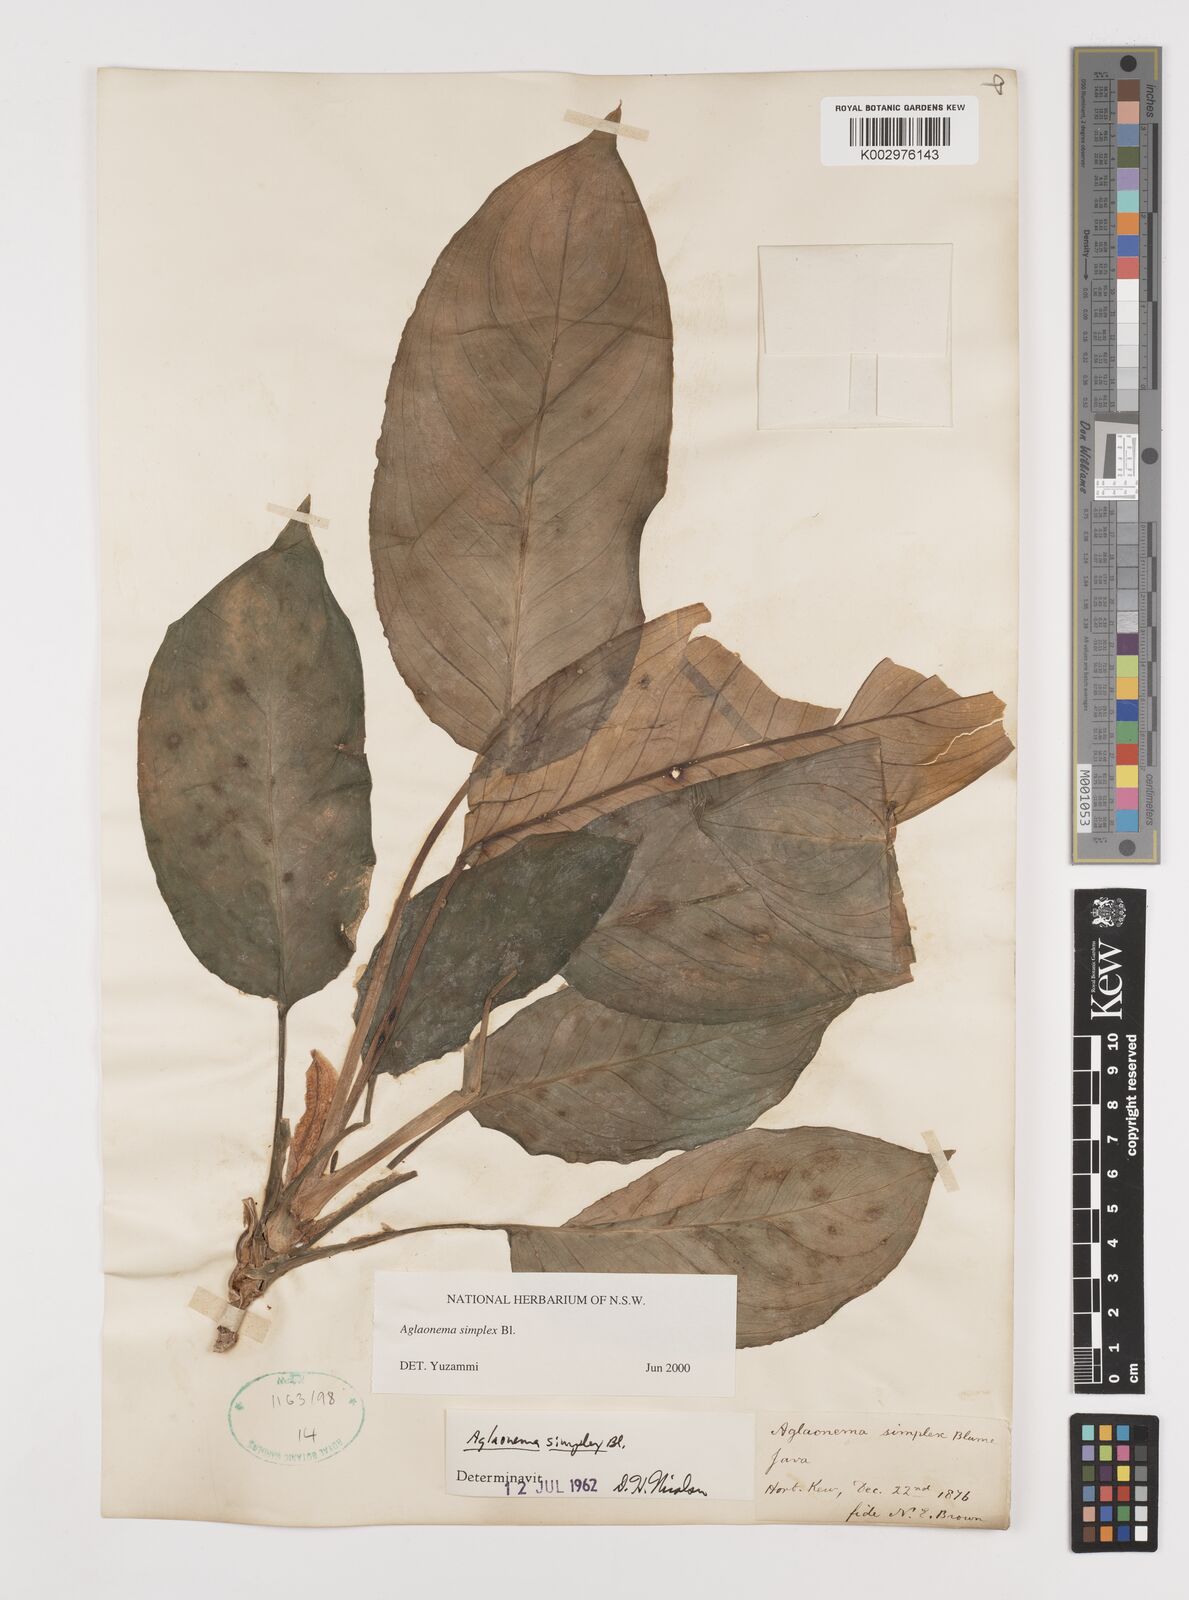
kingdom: Plantae
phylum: Tracheophyta
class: Liliopsida
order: Alismatales
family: Araceae
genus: Aglaonema
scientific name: Aglaonema simplex
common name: Malayan-sword
